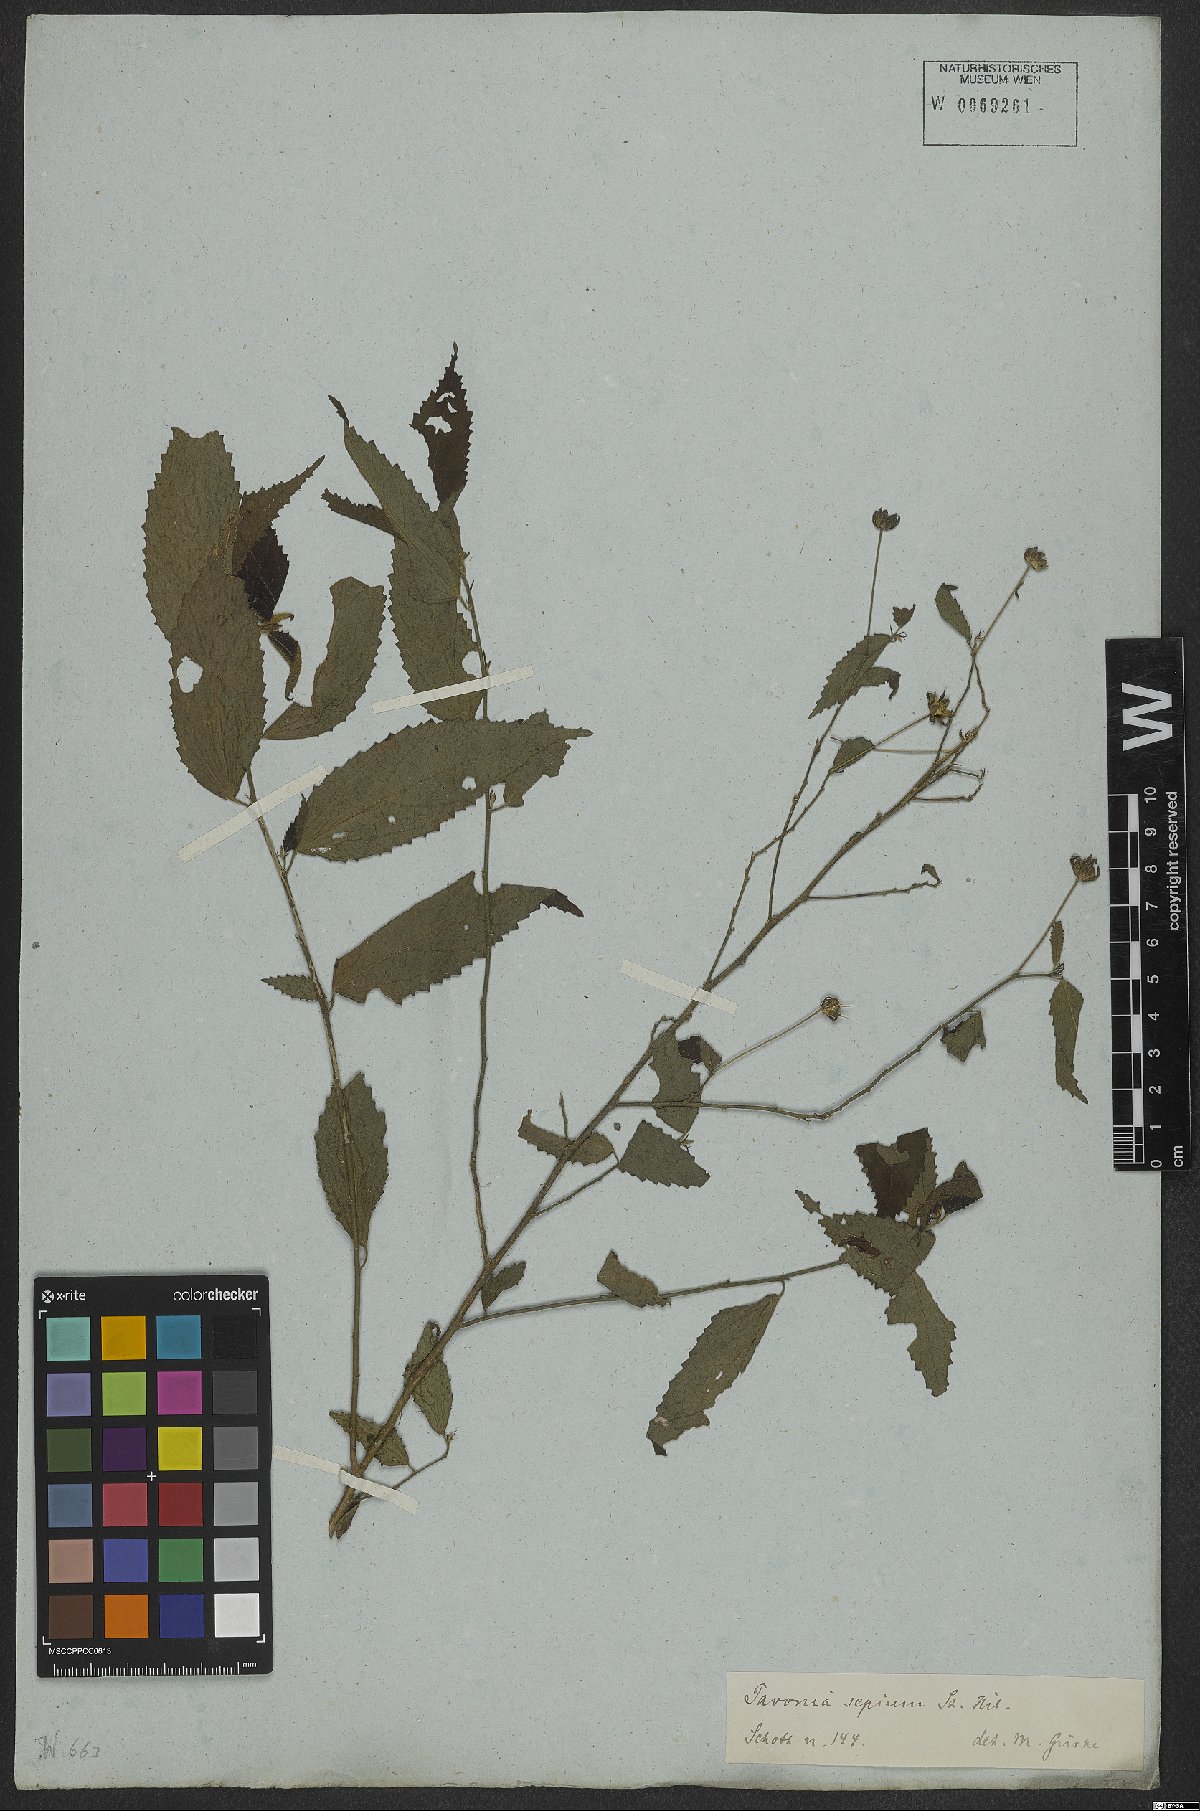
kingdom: Plantae
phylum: Tracheophyta
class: Magnoliopsida
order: Malvales
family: Malvaceae
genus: Pavonia
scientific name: Pavonia sepium
